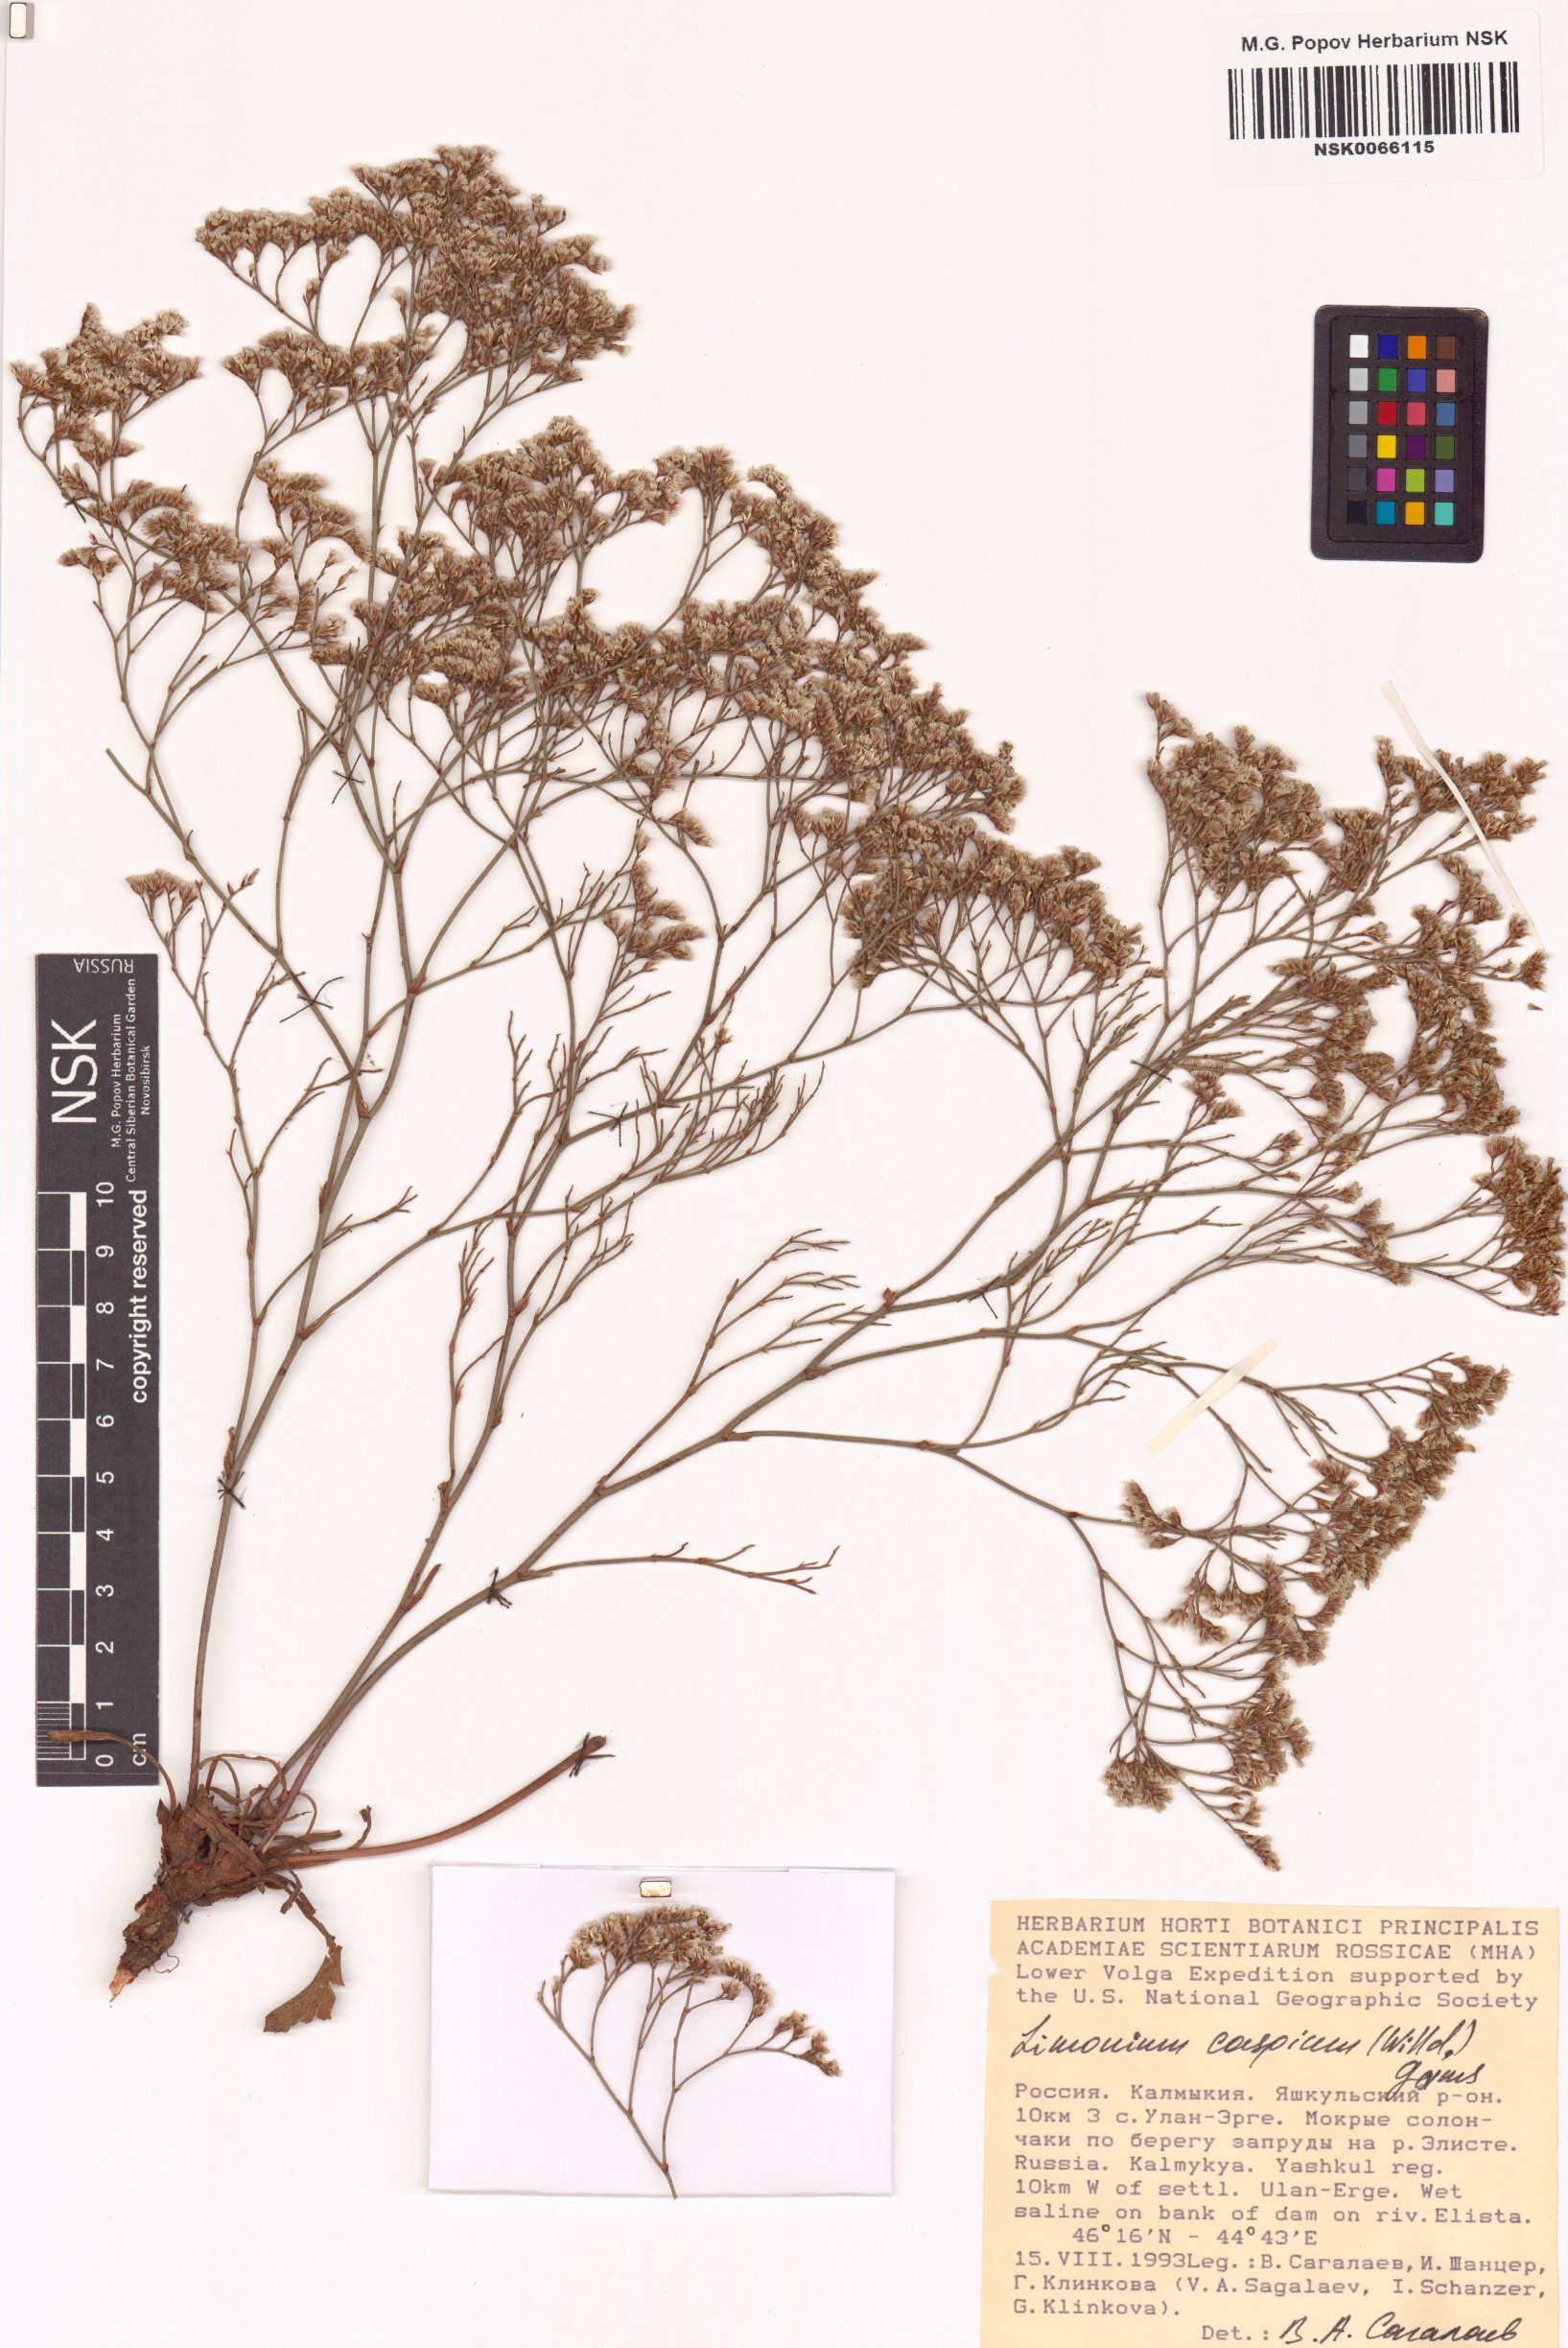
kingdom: Plantae
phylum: Tracheophyta
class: Magnoliopsida
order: Caryophyllales
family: Plumbaginaceae
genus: Limonium
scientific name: Limonium bellidifolium
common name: Matted sea-lavender
